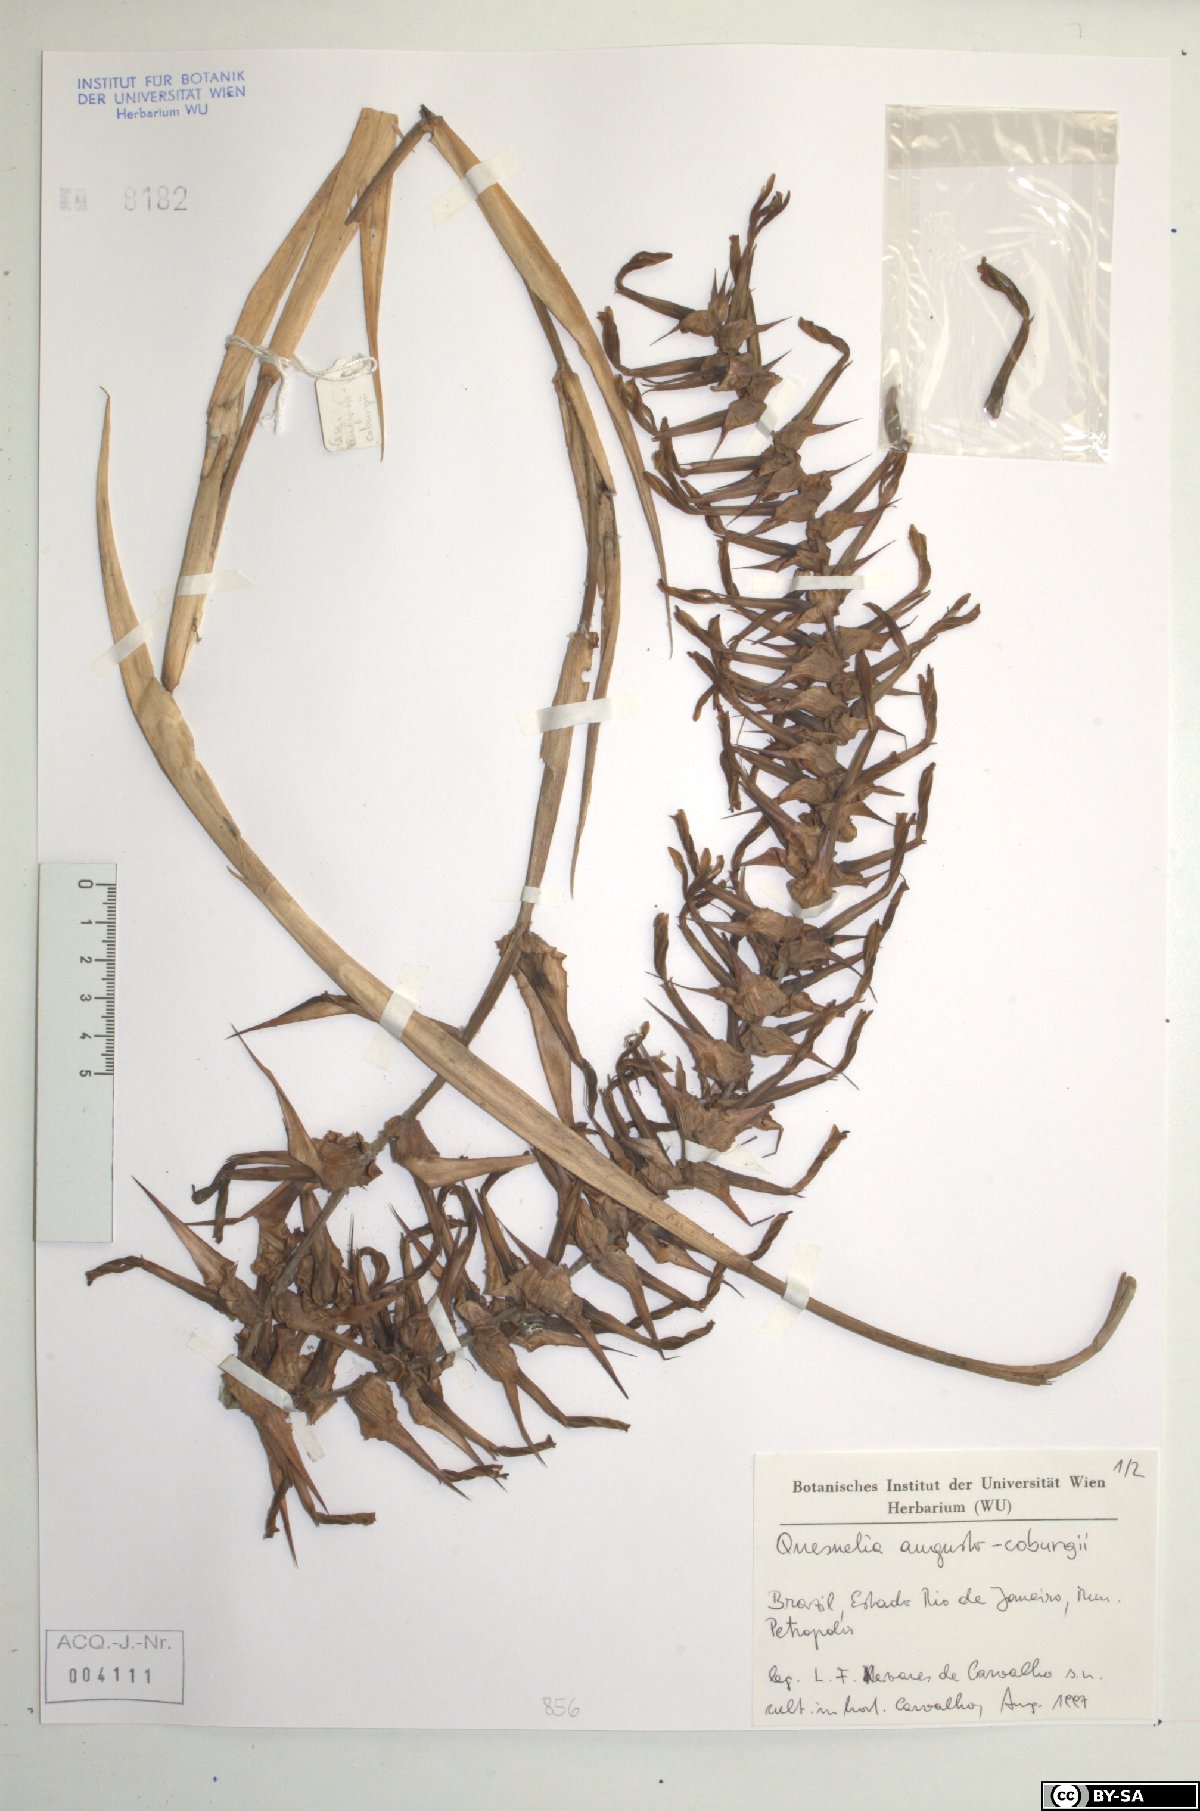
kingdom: Plantae
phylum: Tracheophyta
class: Liliopsida
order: Poales
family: Bromeliaceae
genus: Quesnelia
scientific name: Quesnelia augustocoburgi
